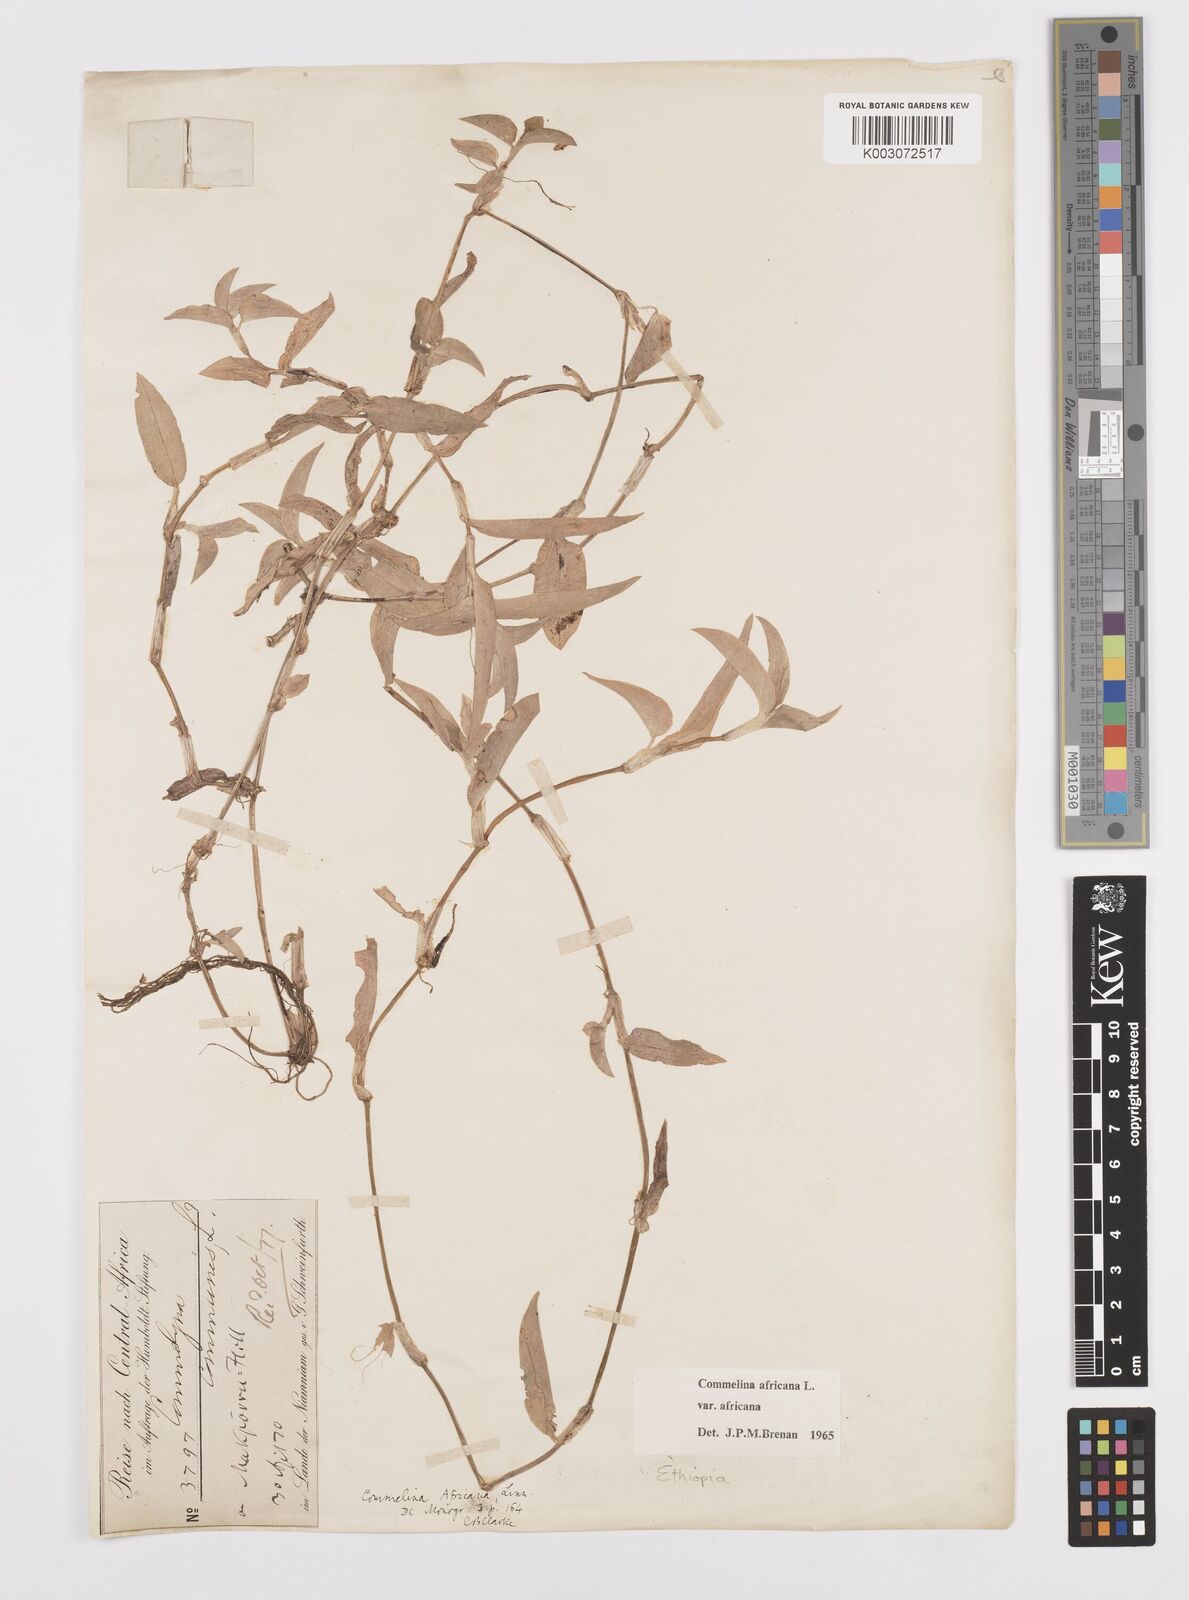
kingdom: Plantae
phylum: Tracheophyta
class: Liliopsida
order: Commelinales
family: Commelinaceae
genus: Commelina
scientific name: Commelina africana
